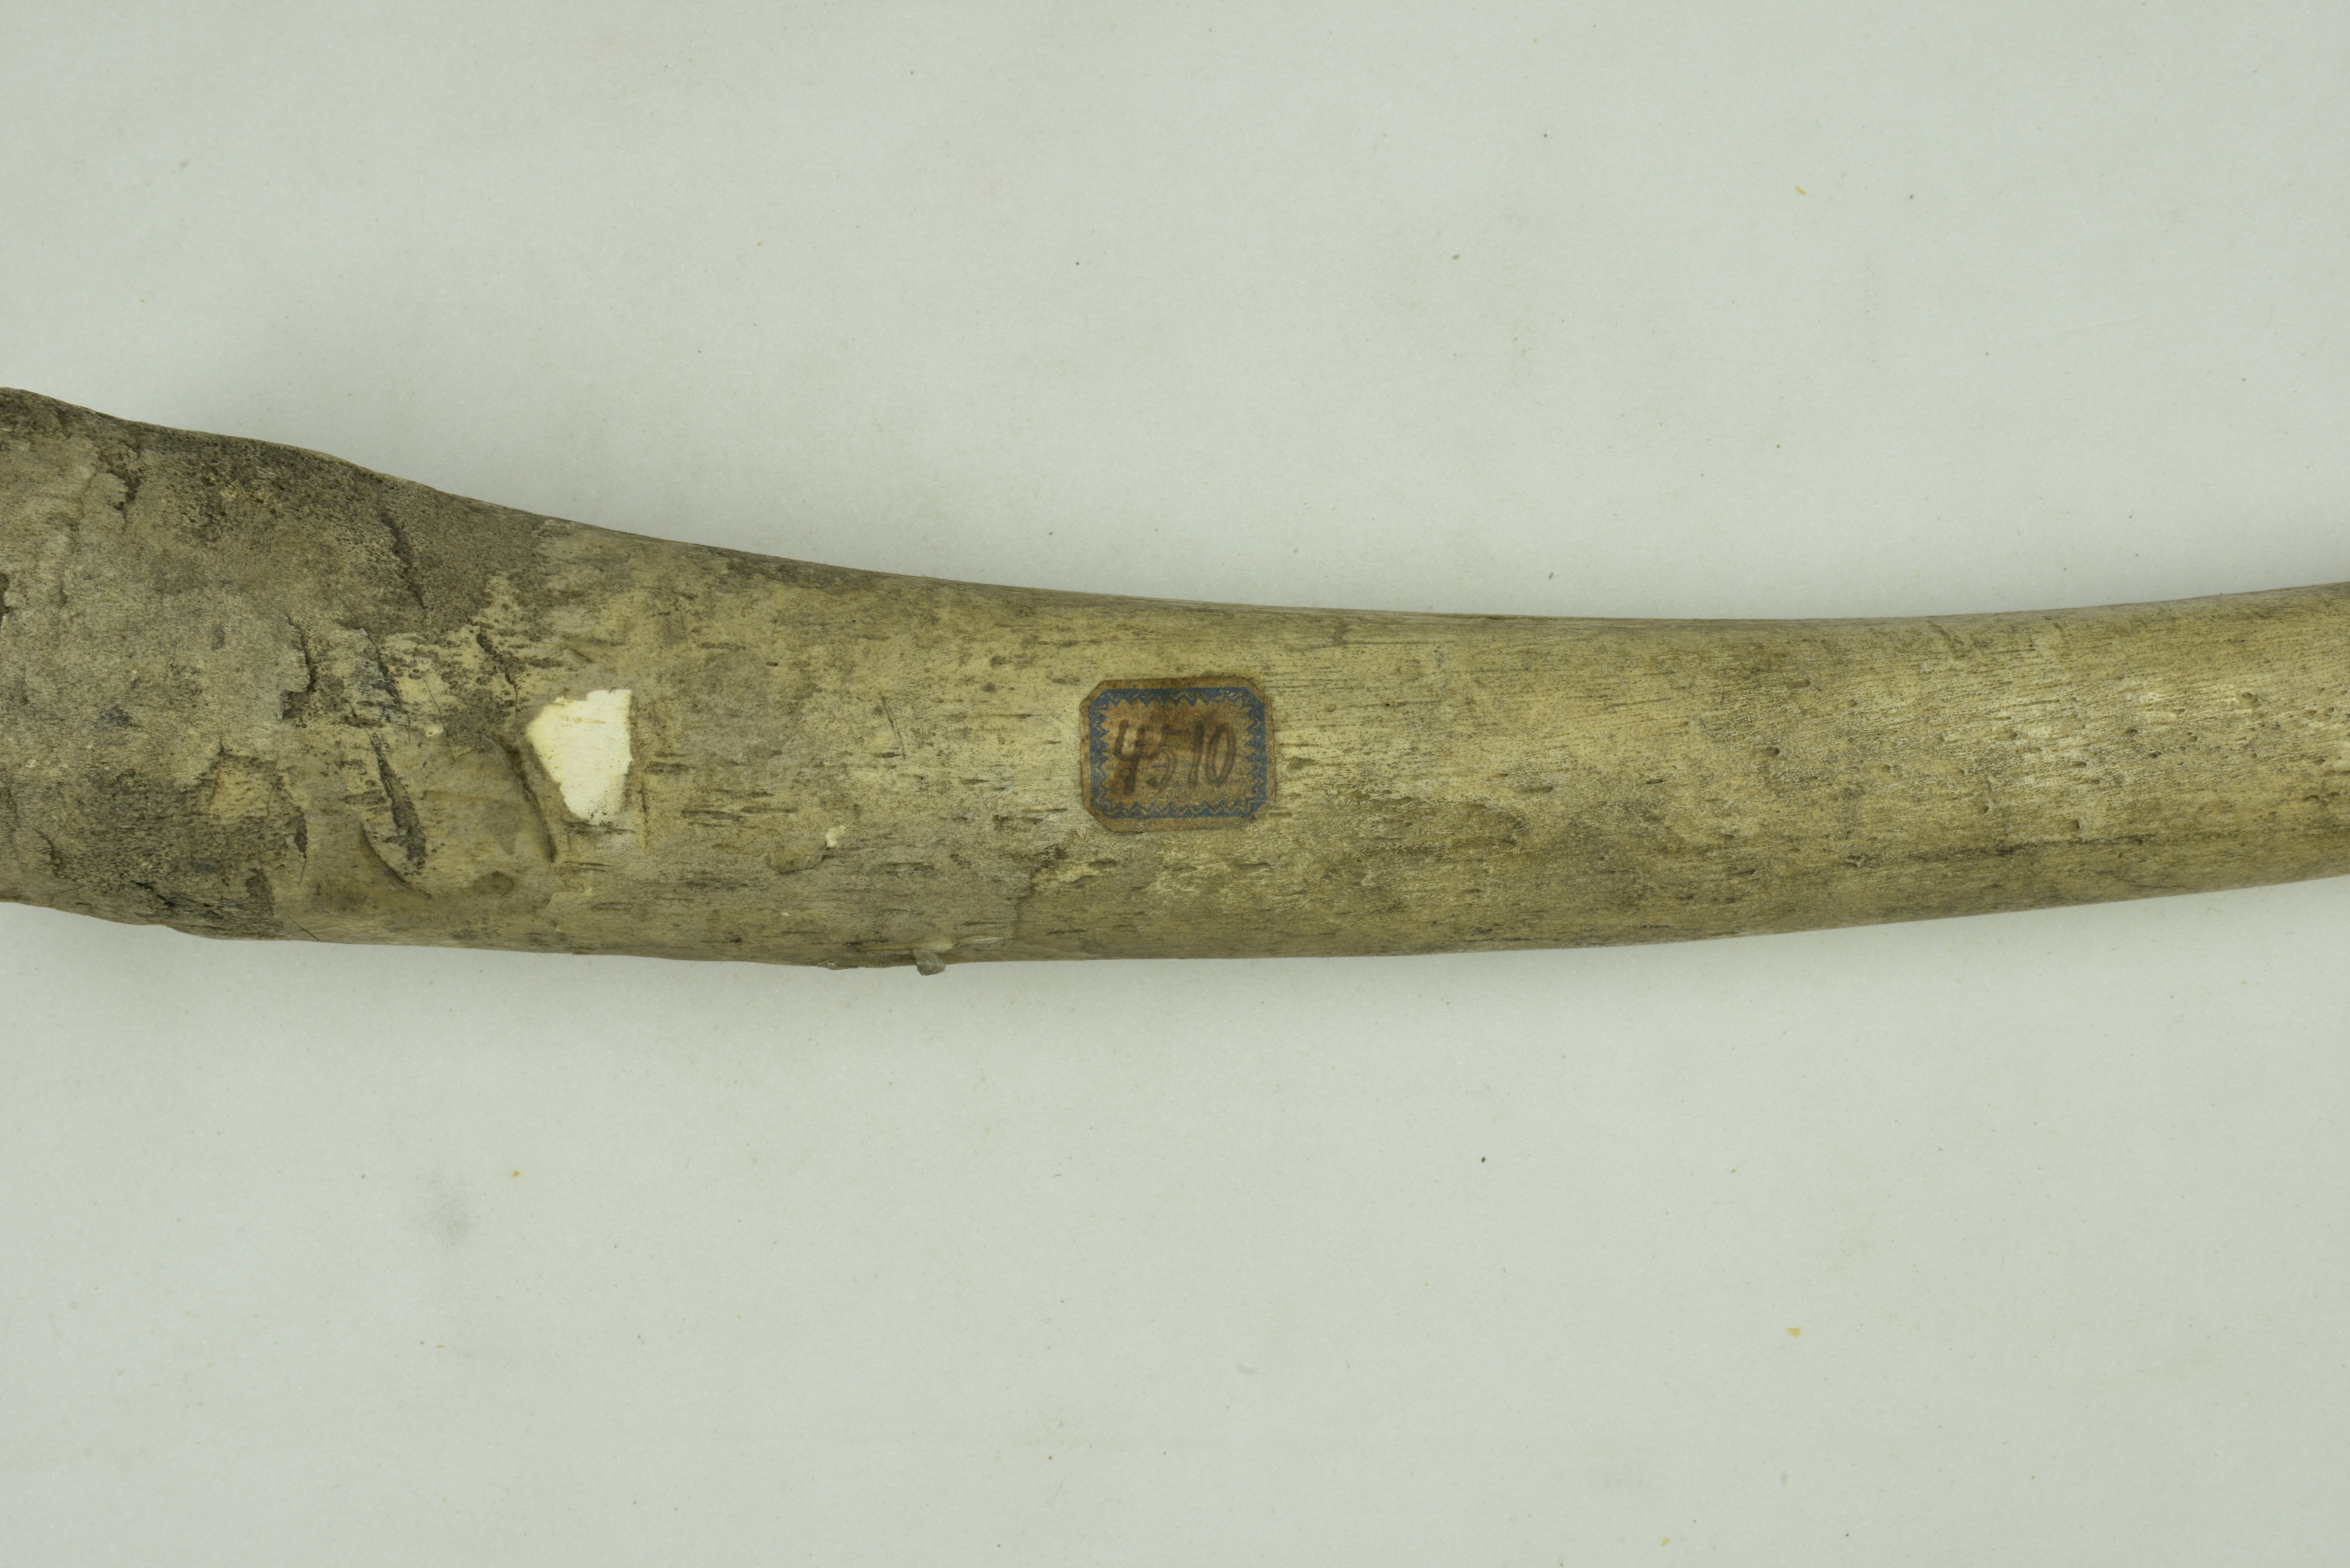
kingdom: Animalia
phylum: Chordata
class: Mammalia
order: Carnivora
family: Odobenidae
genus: Odobenus
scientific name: Odobenus rosmarus
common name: Walrus
